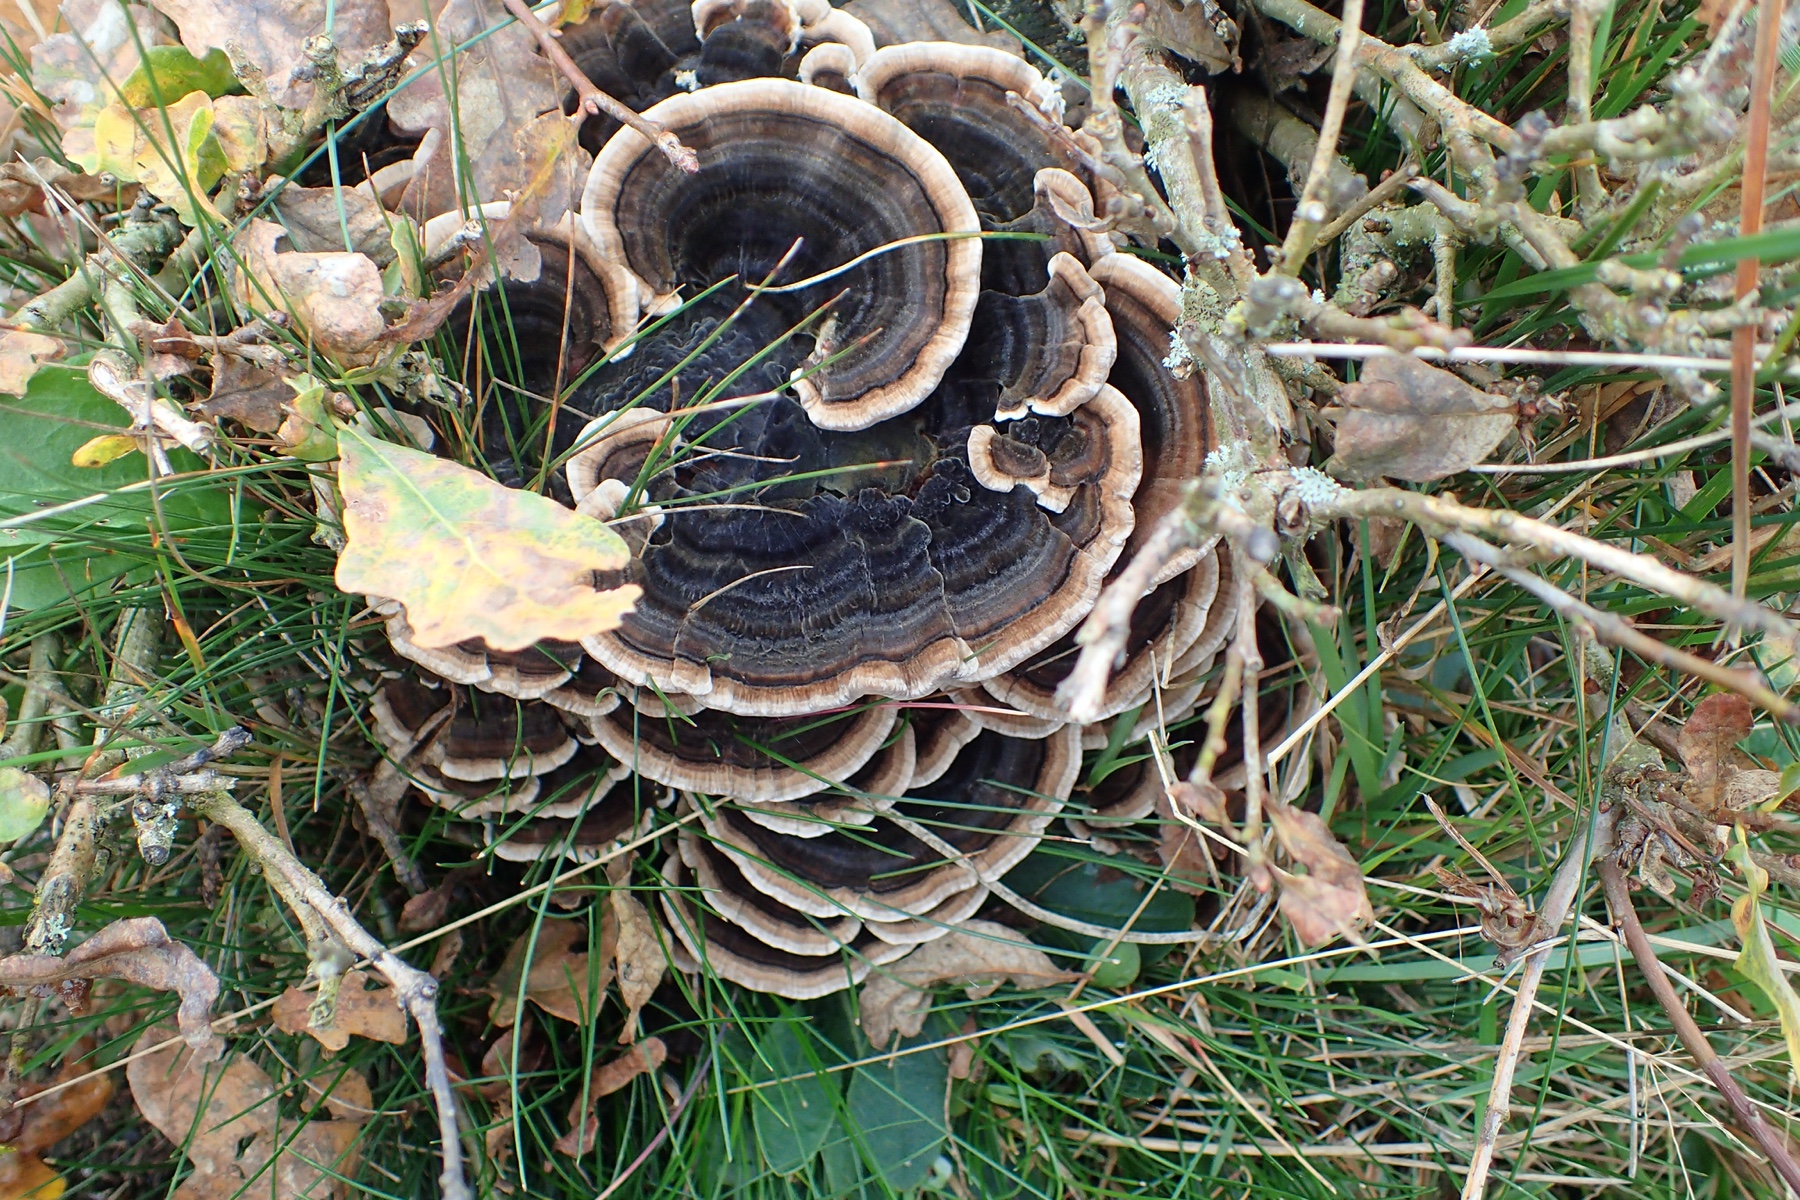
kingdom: Fungi
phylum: Basidiomycota
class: Agaricomycetes
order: Polyporales
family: Polyporaceae
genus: Trametes
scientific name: Trametes versicolor
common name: broget læderporesvamp
